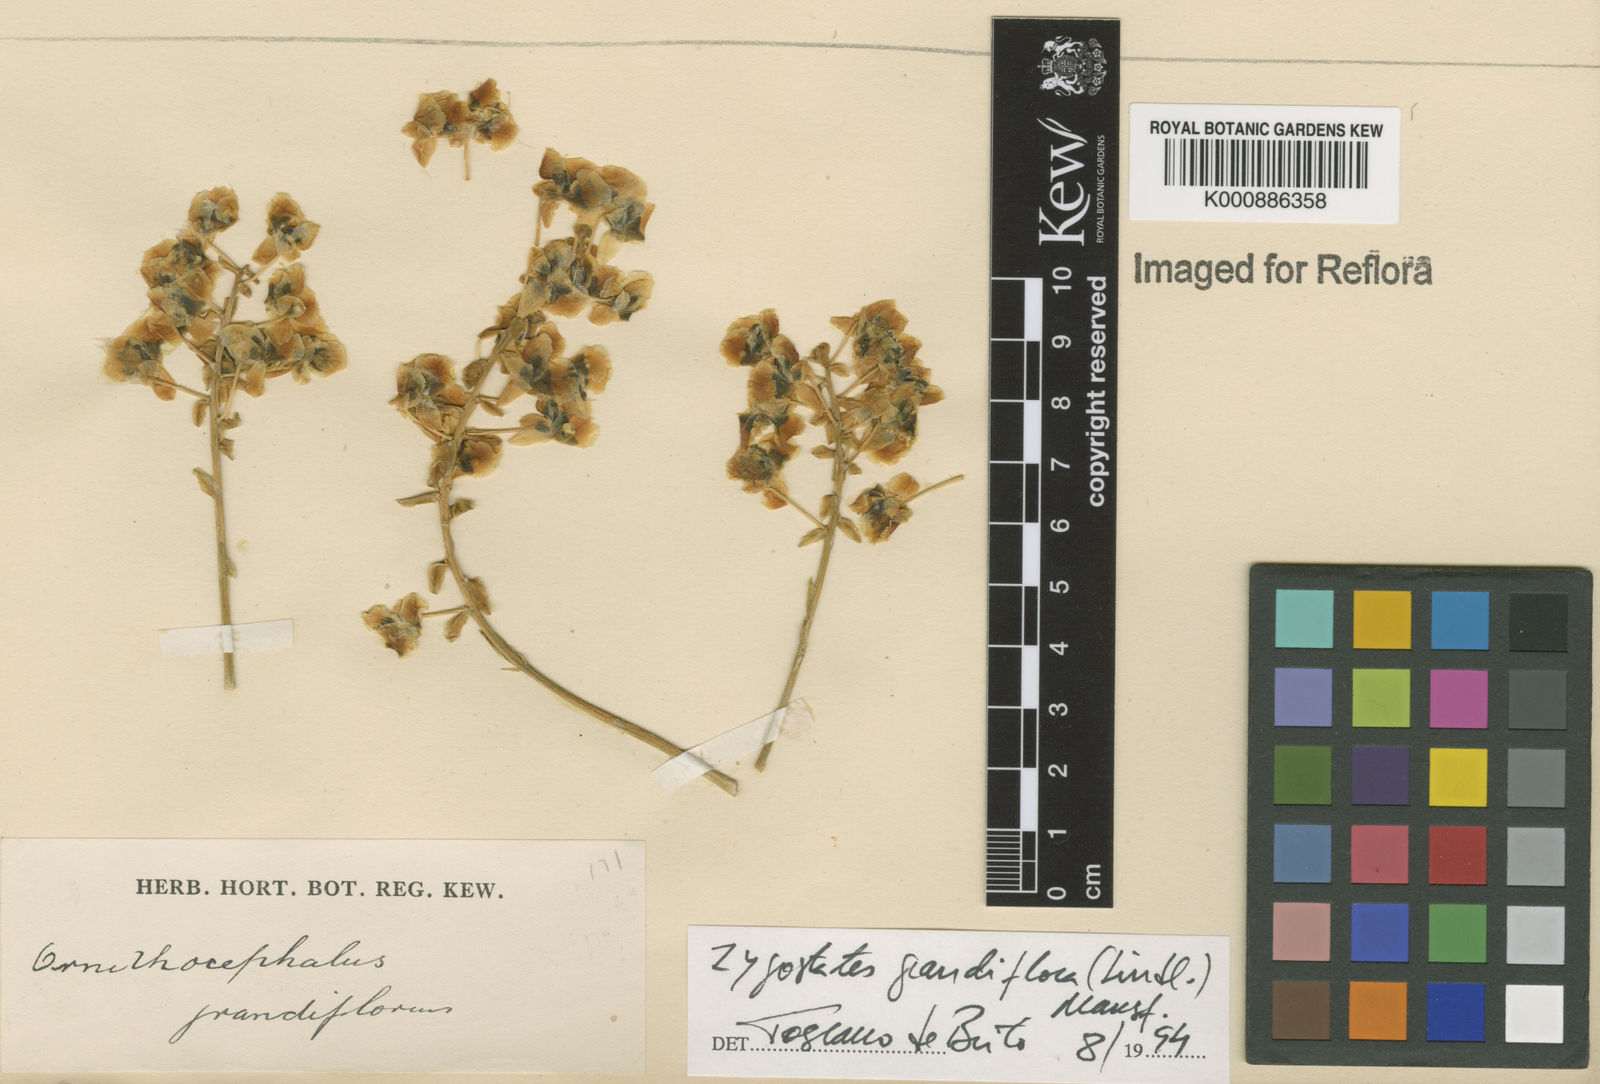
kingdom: Plantae
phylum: Tracheophyta
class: Liliopsida
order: Asparagales
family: Orchidaceae
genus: Zygostates
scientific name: Zygostates grandiflora
